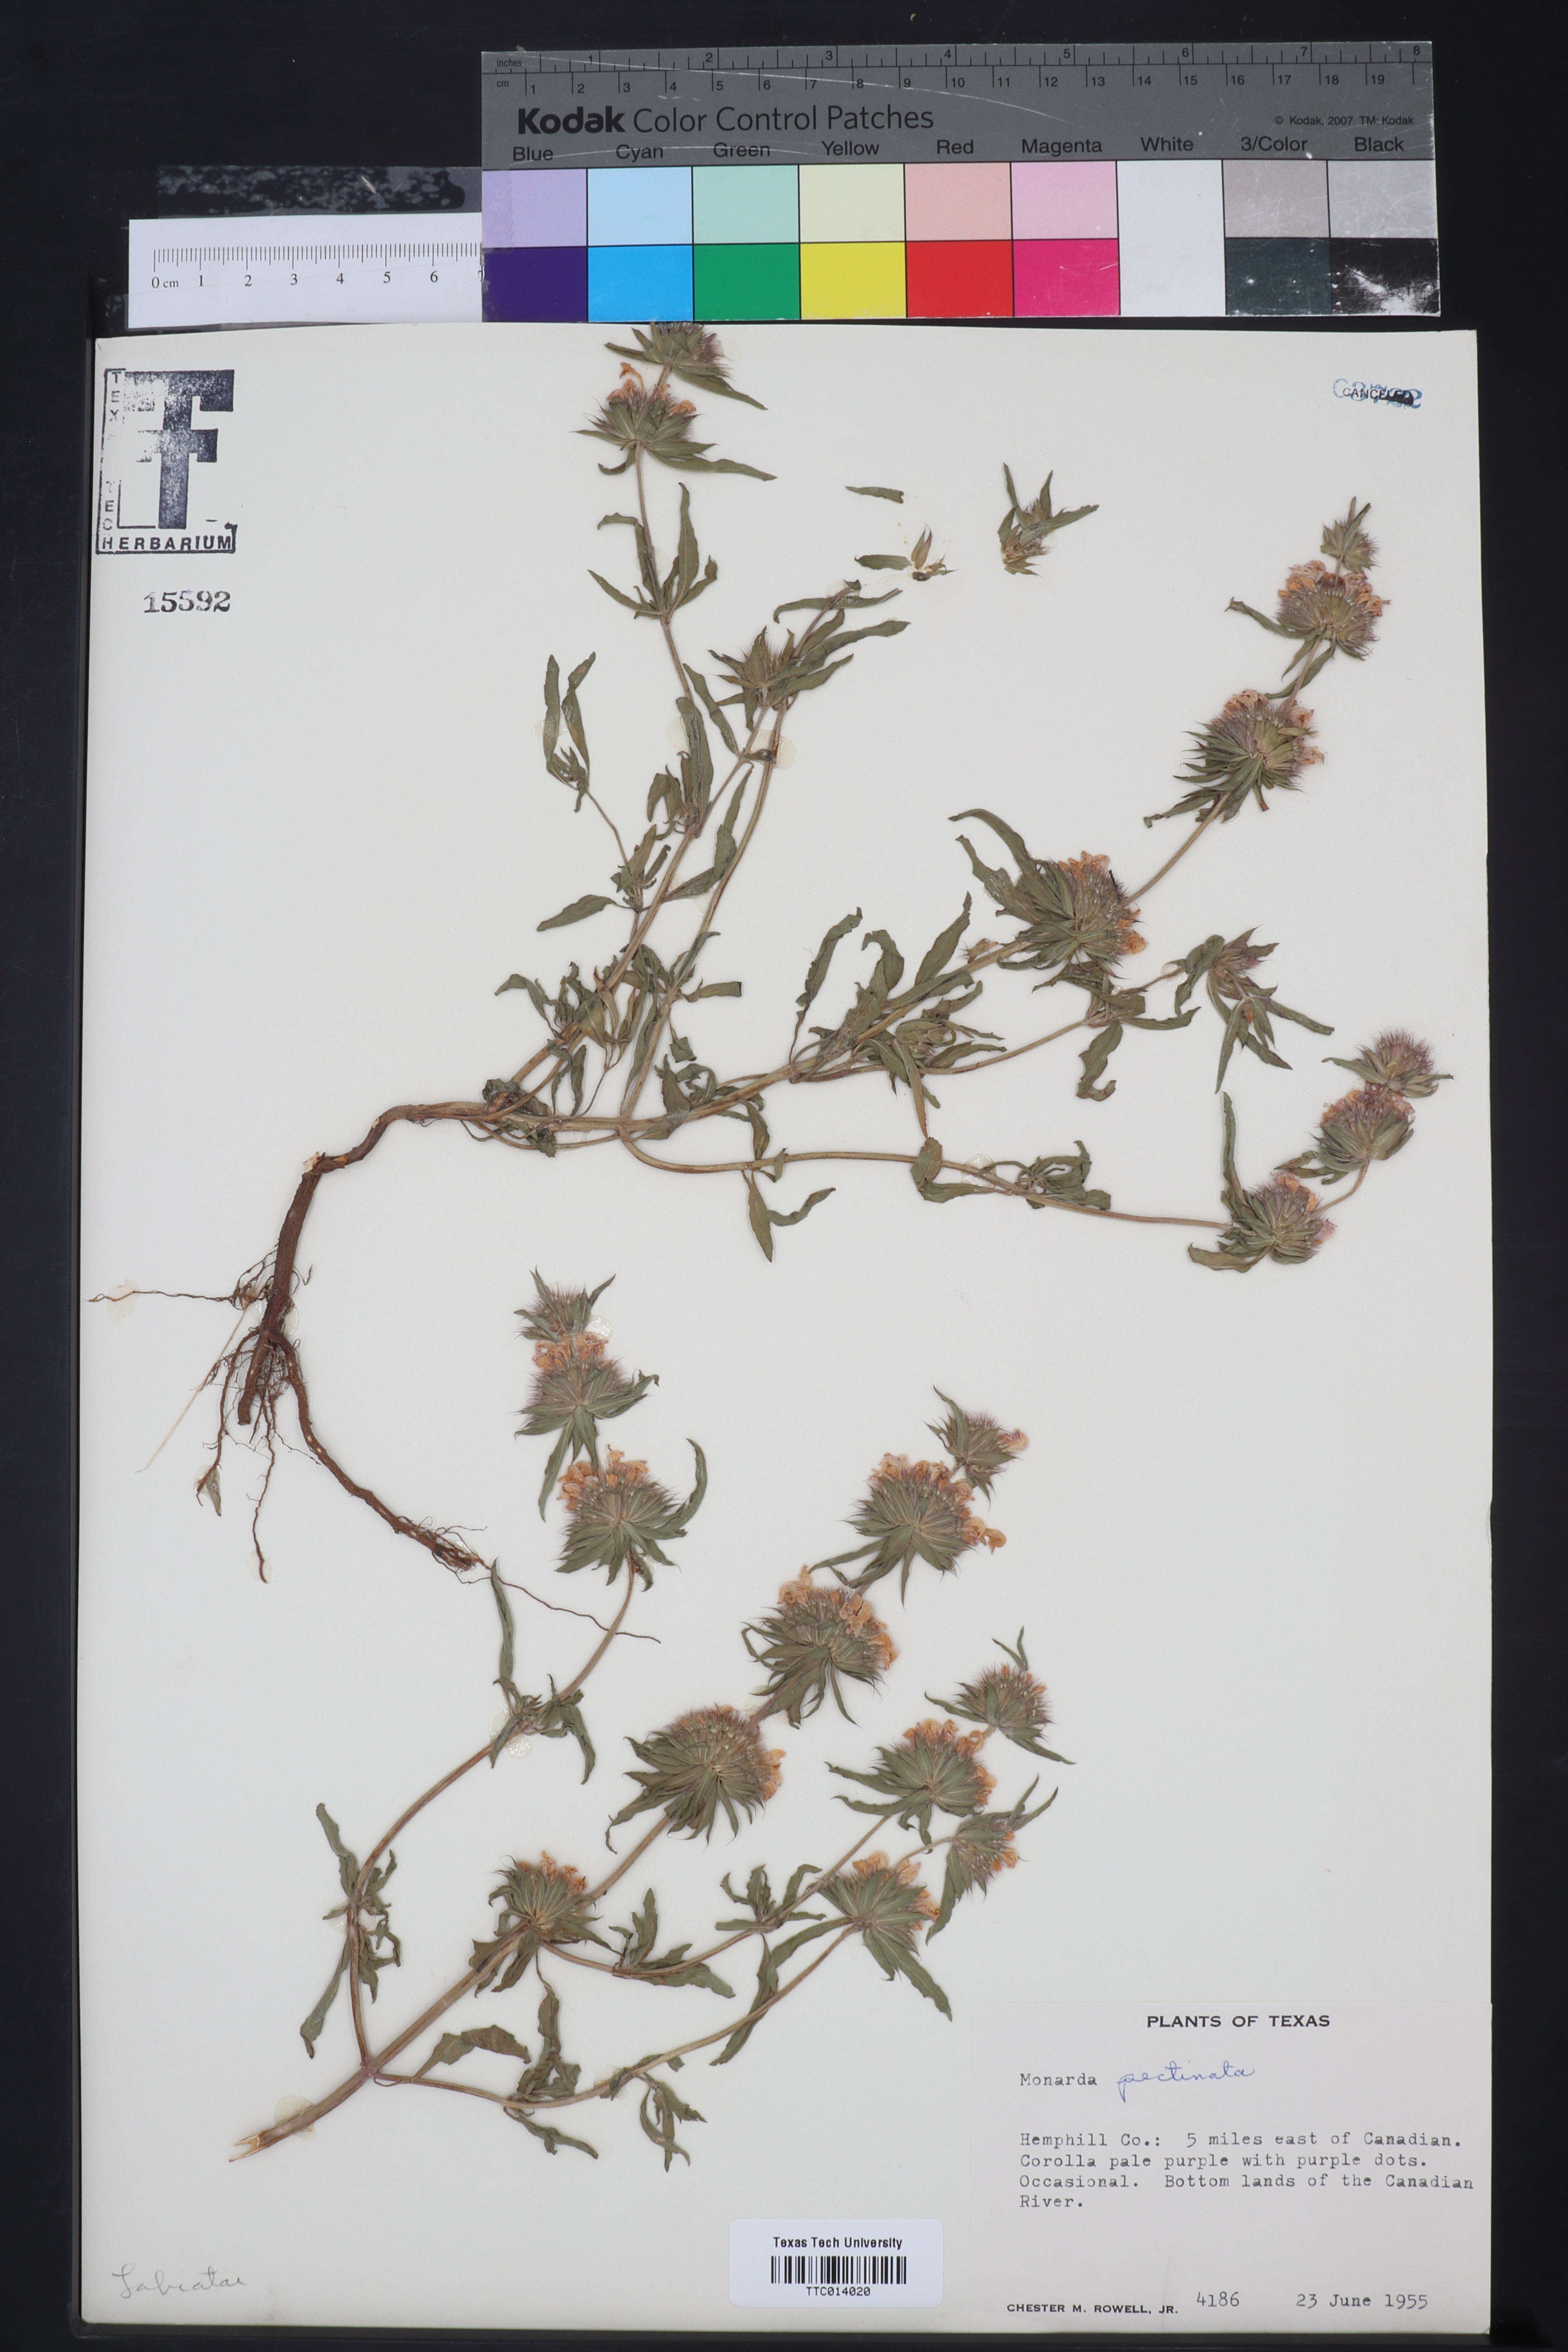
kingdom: Plantae
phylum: Tracheophyta
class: Magnoliopsida
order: Lamiales
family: Lamiaceae
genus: Monarda
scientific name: Monarda pectinata
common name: Plains beebalm
